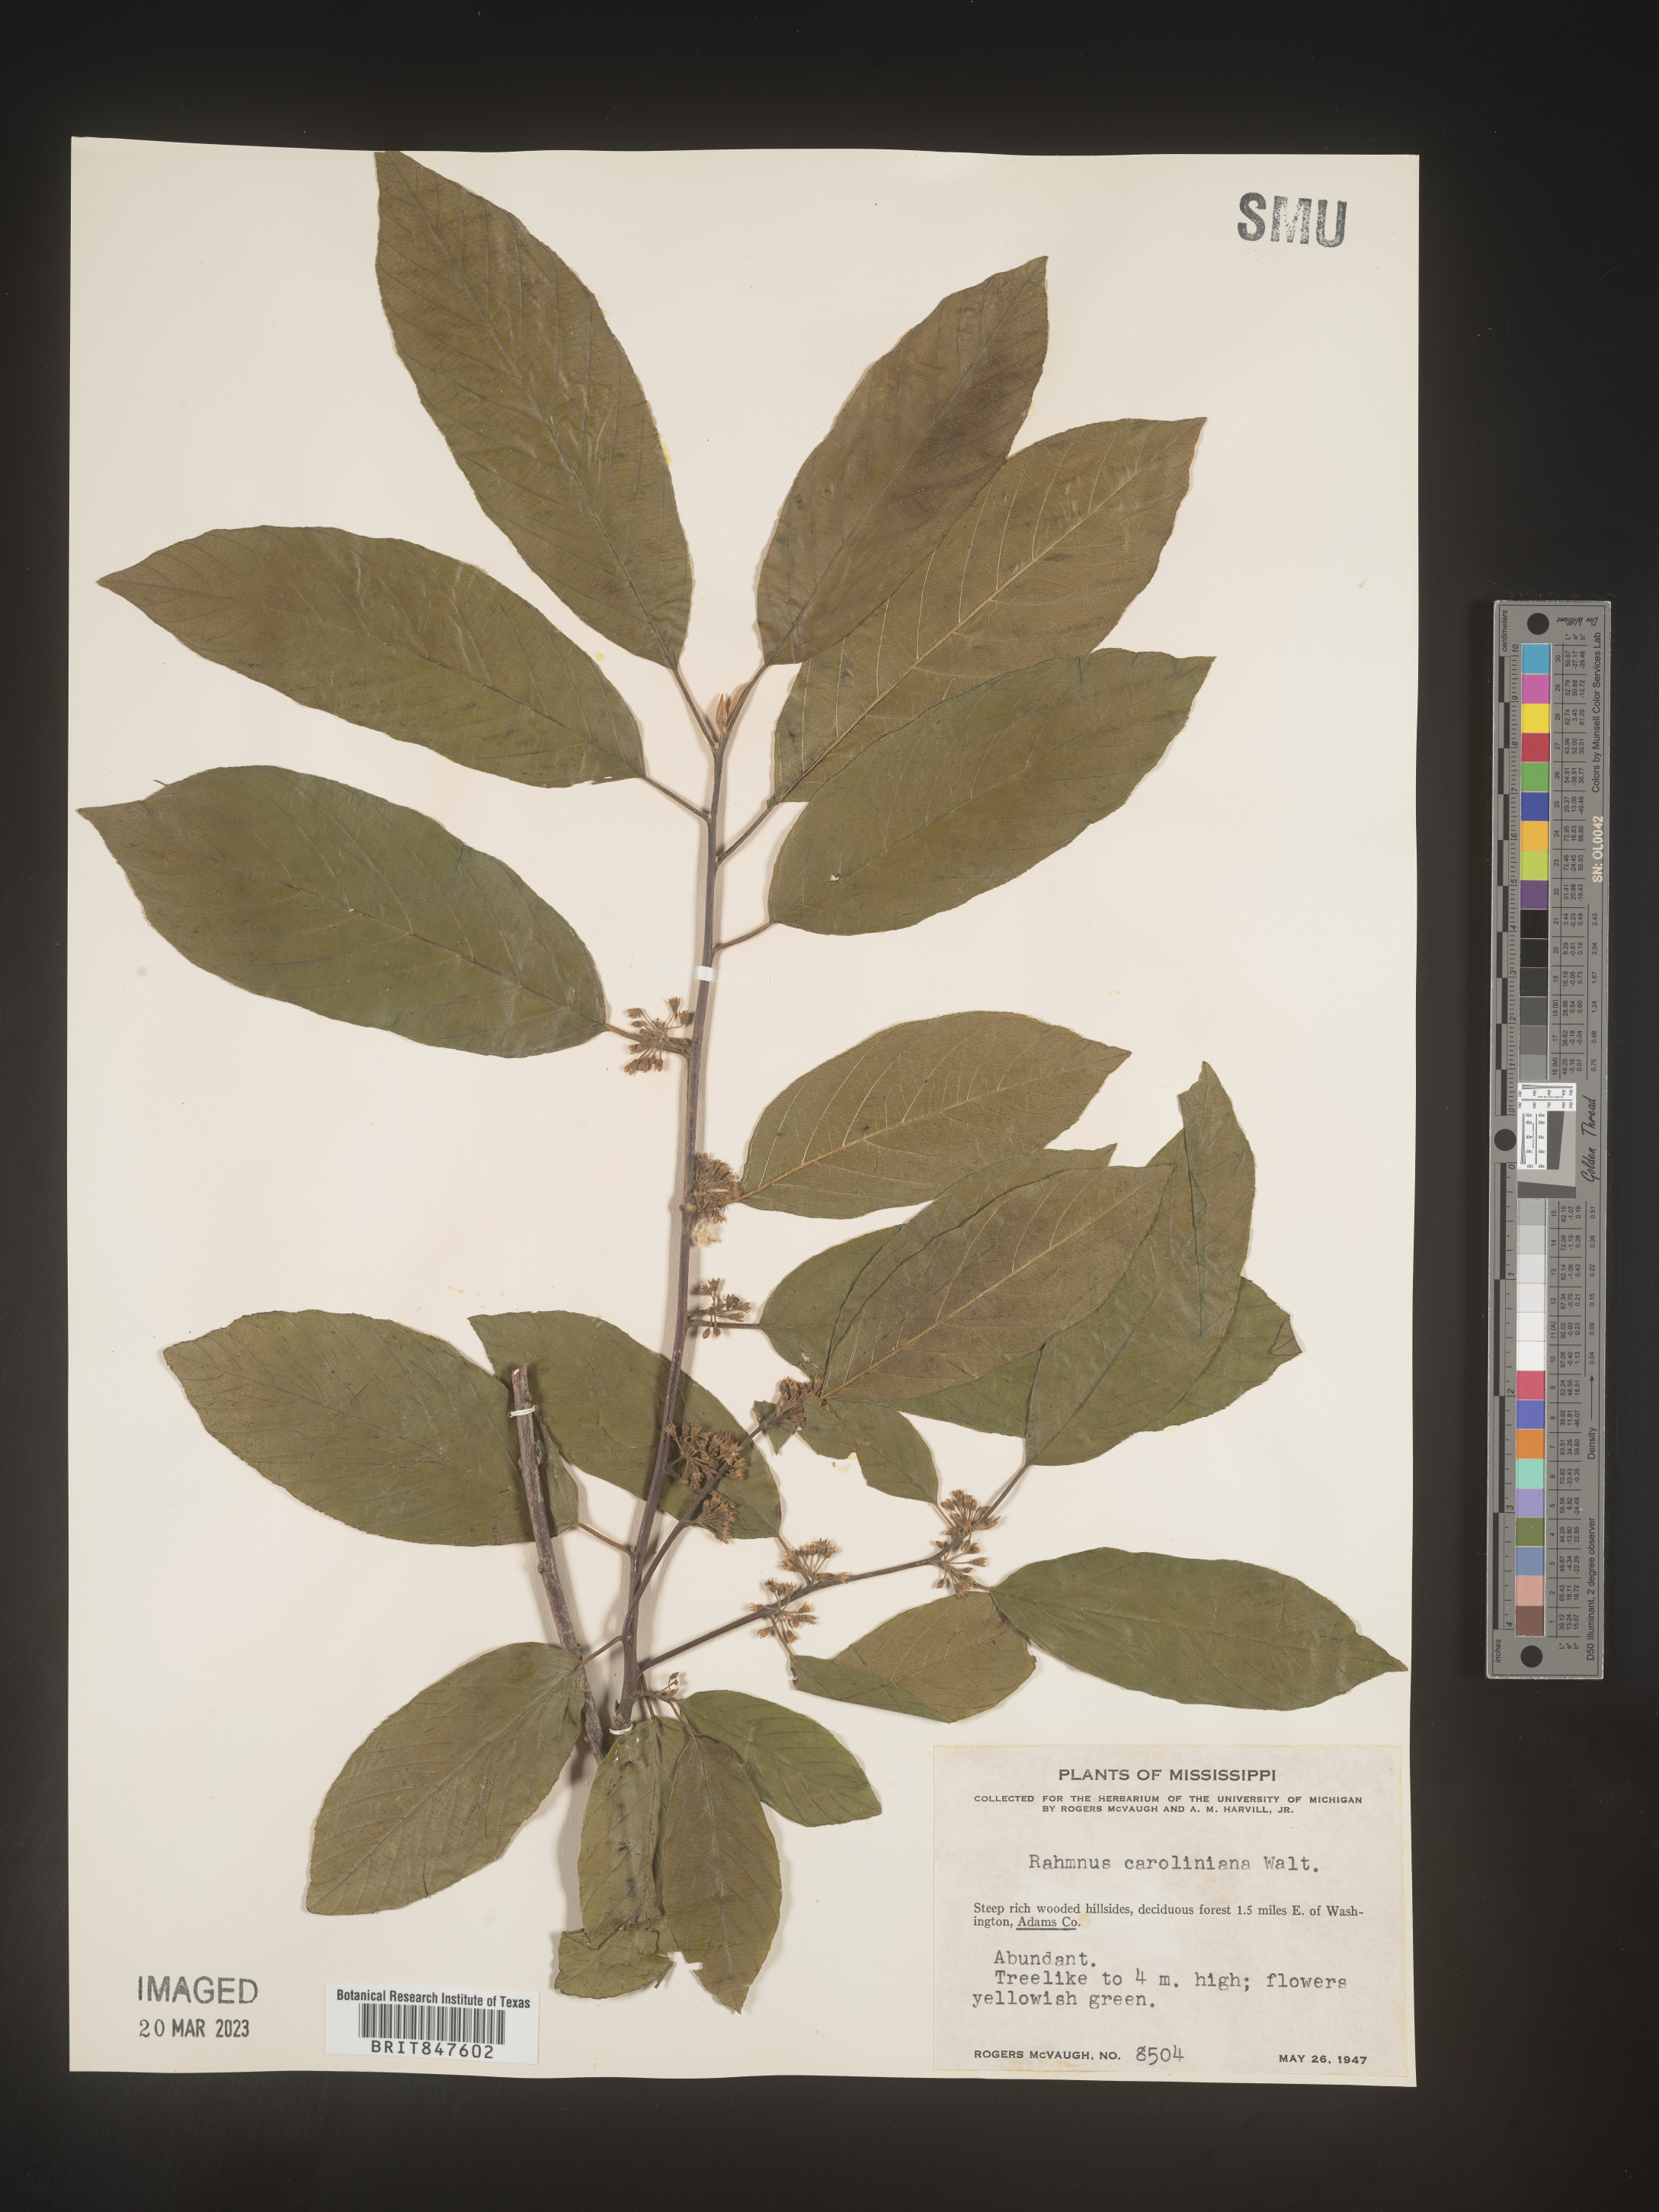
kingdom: Plantae
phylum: Tracheophyta
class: Magnoliopsida
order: Rosales
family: Rhamnaceae
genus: Frangula
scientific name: Frangula caroliniana
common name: Carolina buckthorn
